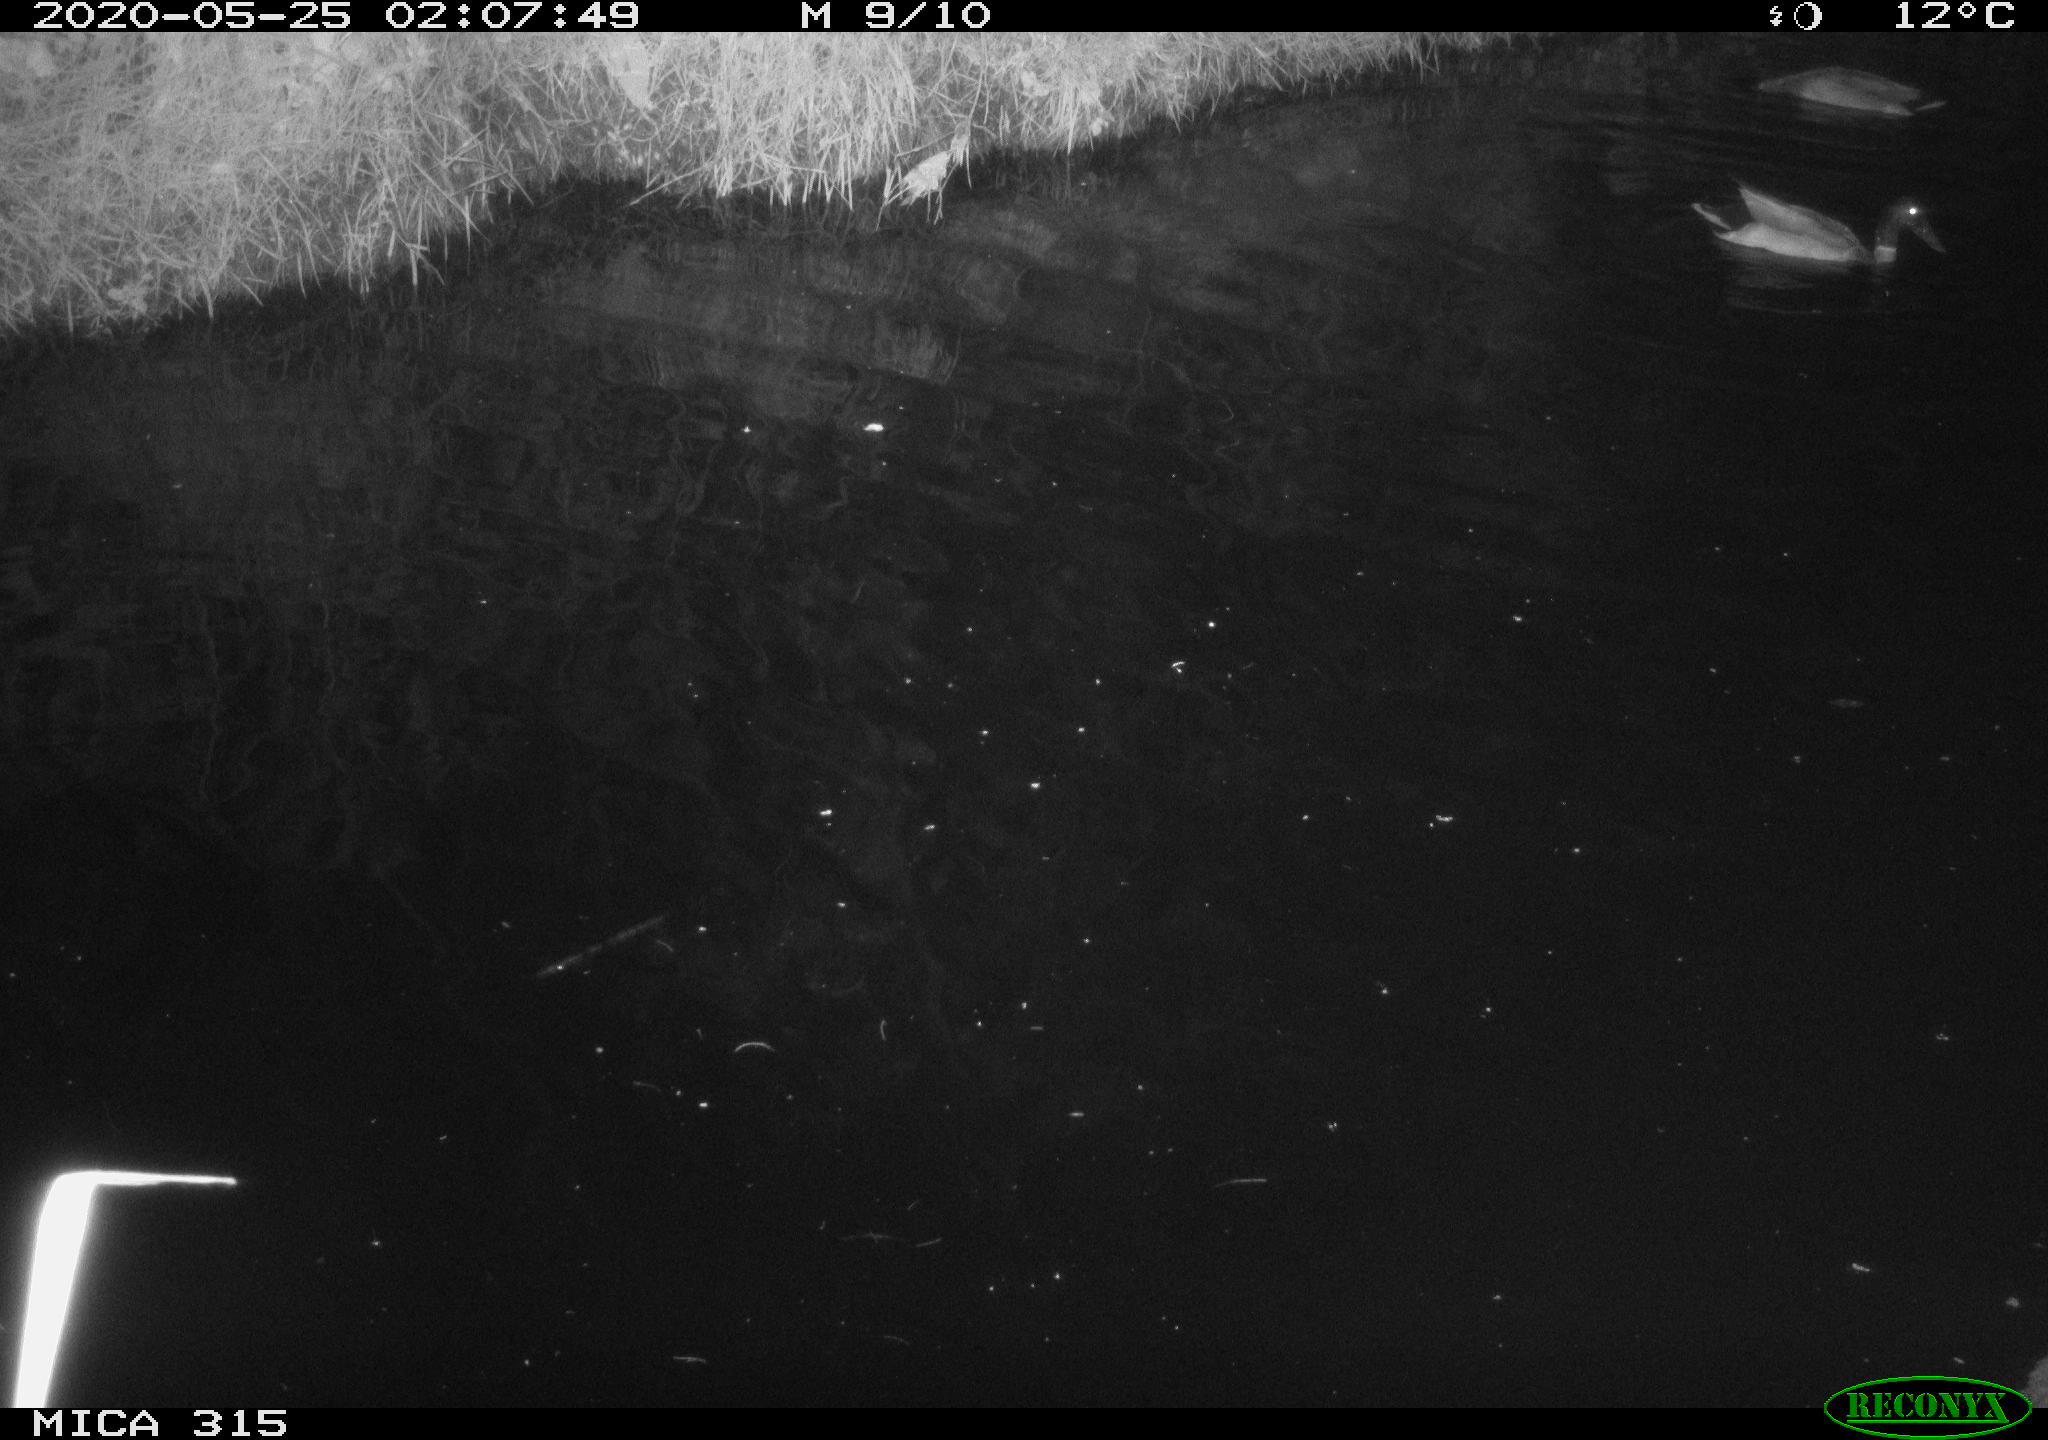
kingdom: Animalia
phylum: Chordata
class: Aves
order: Anseriformes
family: Anatidae
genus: Anas
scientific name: Anas platyrhynchos
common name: Mallard
